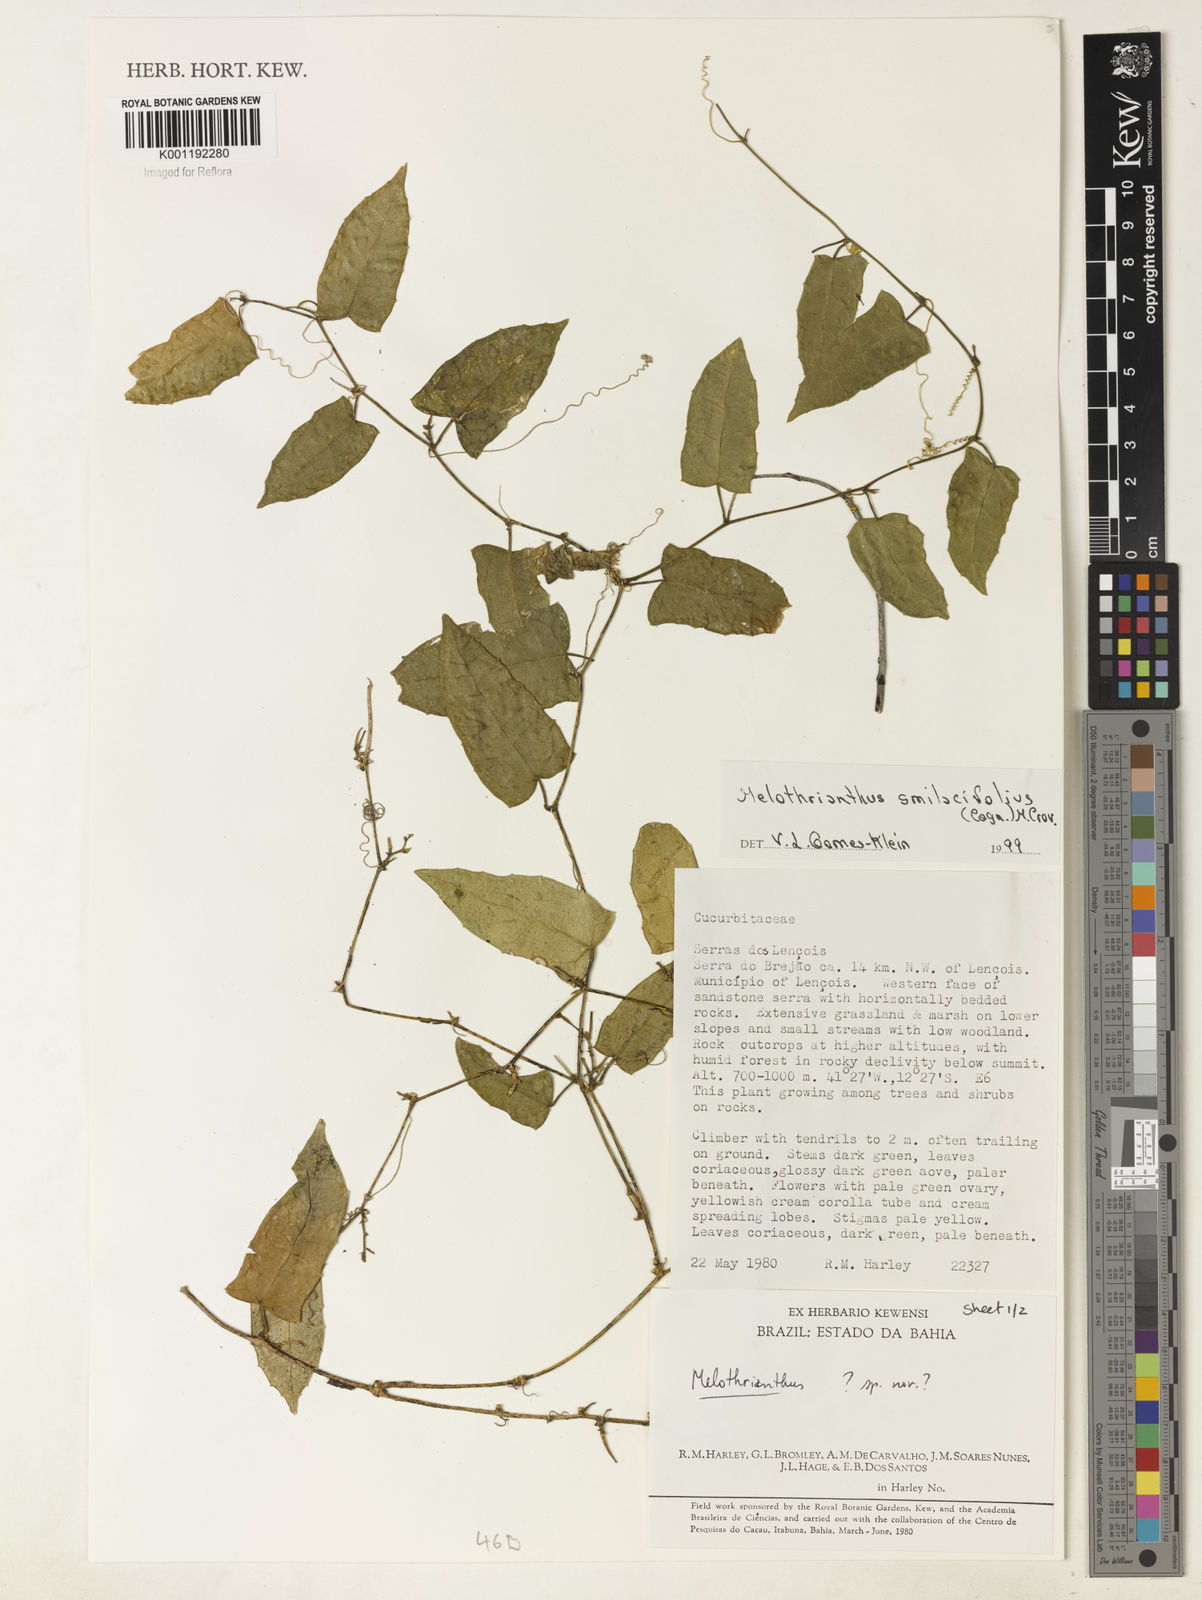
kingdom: Plantae
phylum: Tracheophyta
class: Magnoliopsida
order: Cucurbitales
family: Cucurbitaceae
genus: Apodanthera
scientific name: Apodanthera smilacifolia
